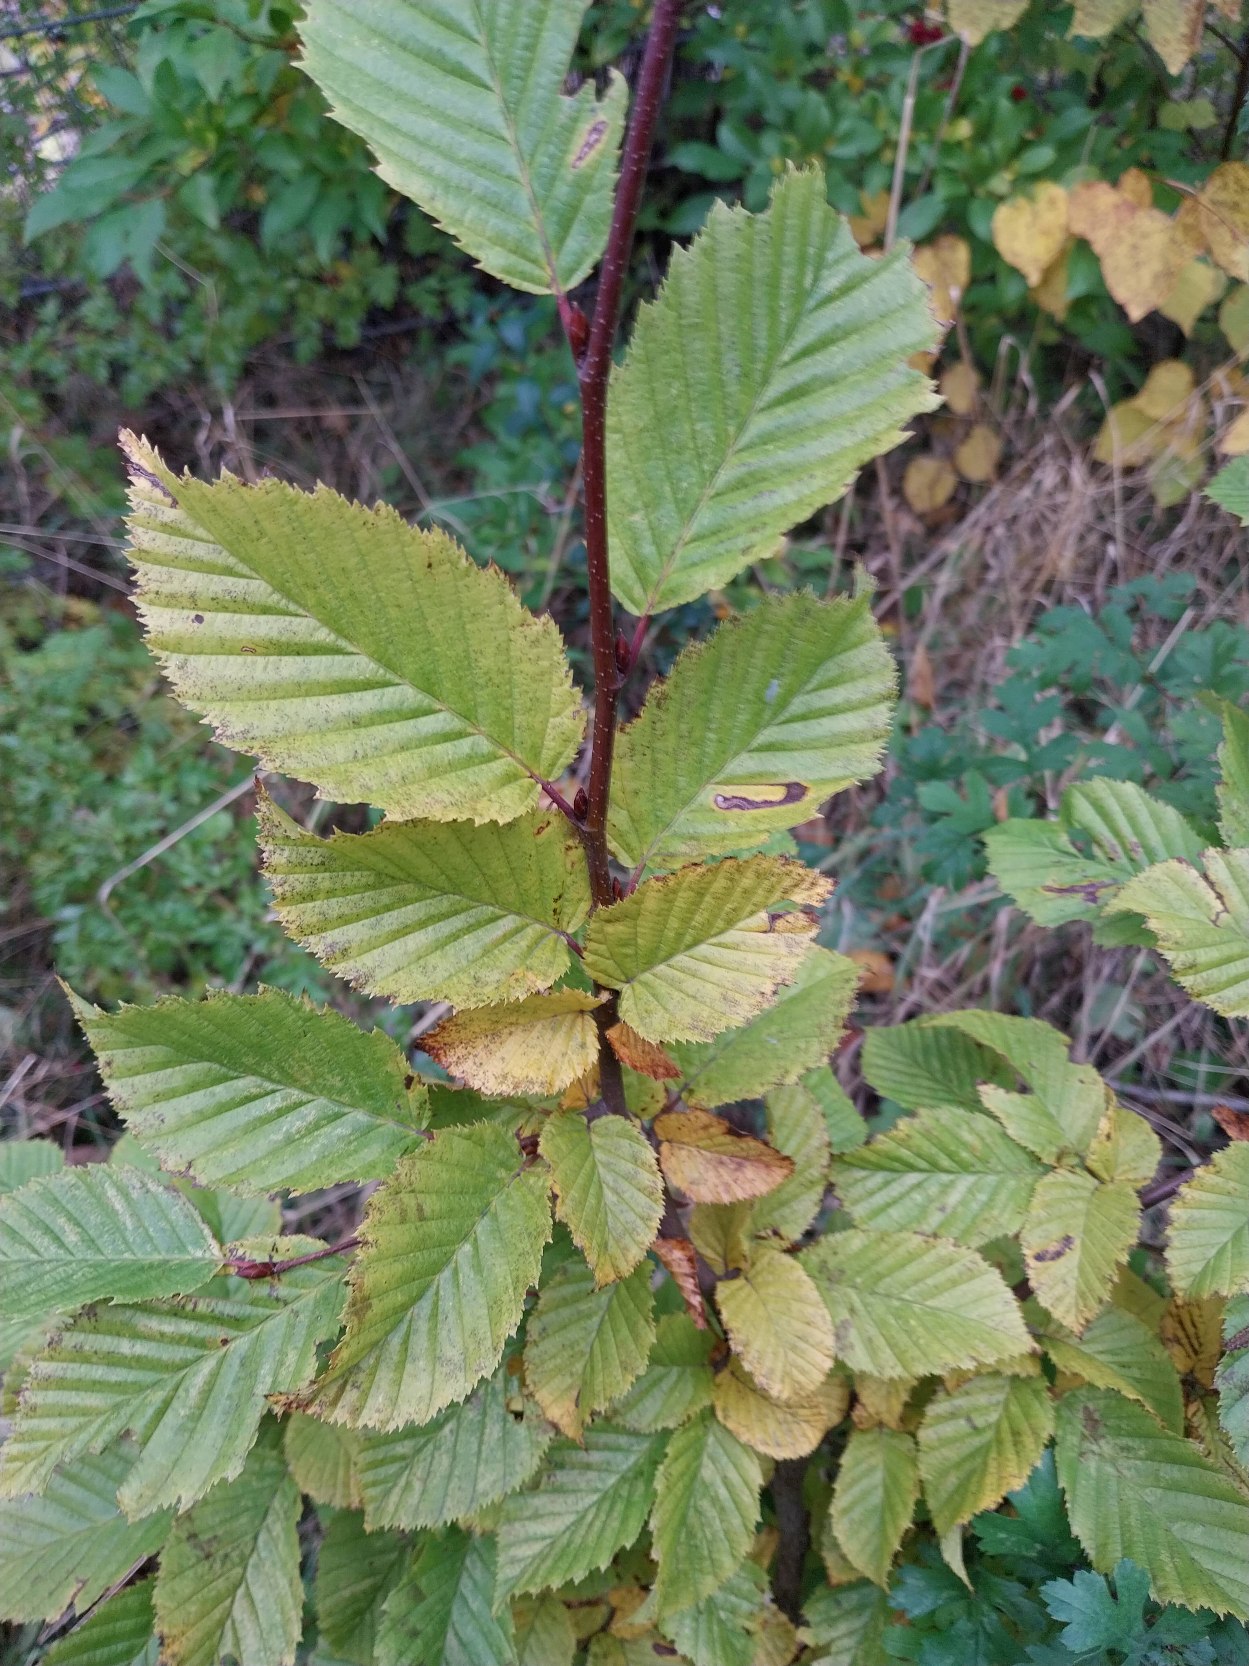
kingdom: Plantae
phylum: Tracheophyta
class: Magnoliopsida
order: Fagales
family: Betulaceae
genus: Carpinus
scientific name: Carpinus betulus
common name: Avnbøg
